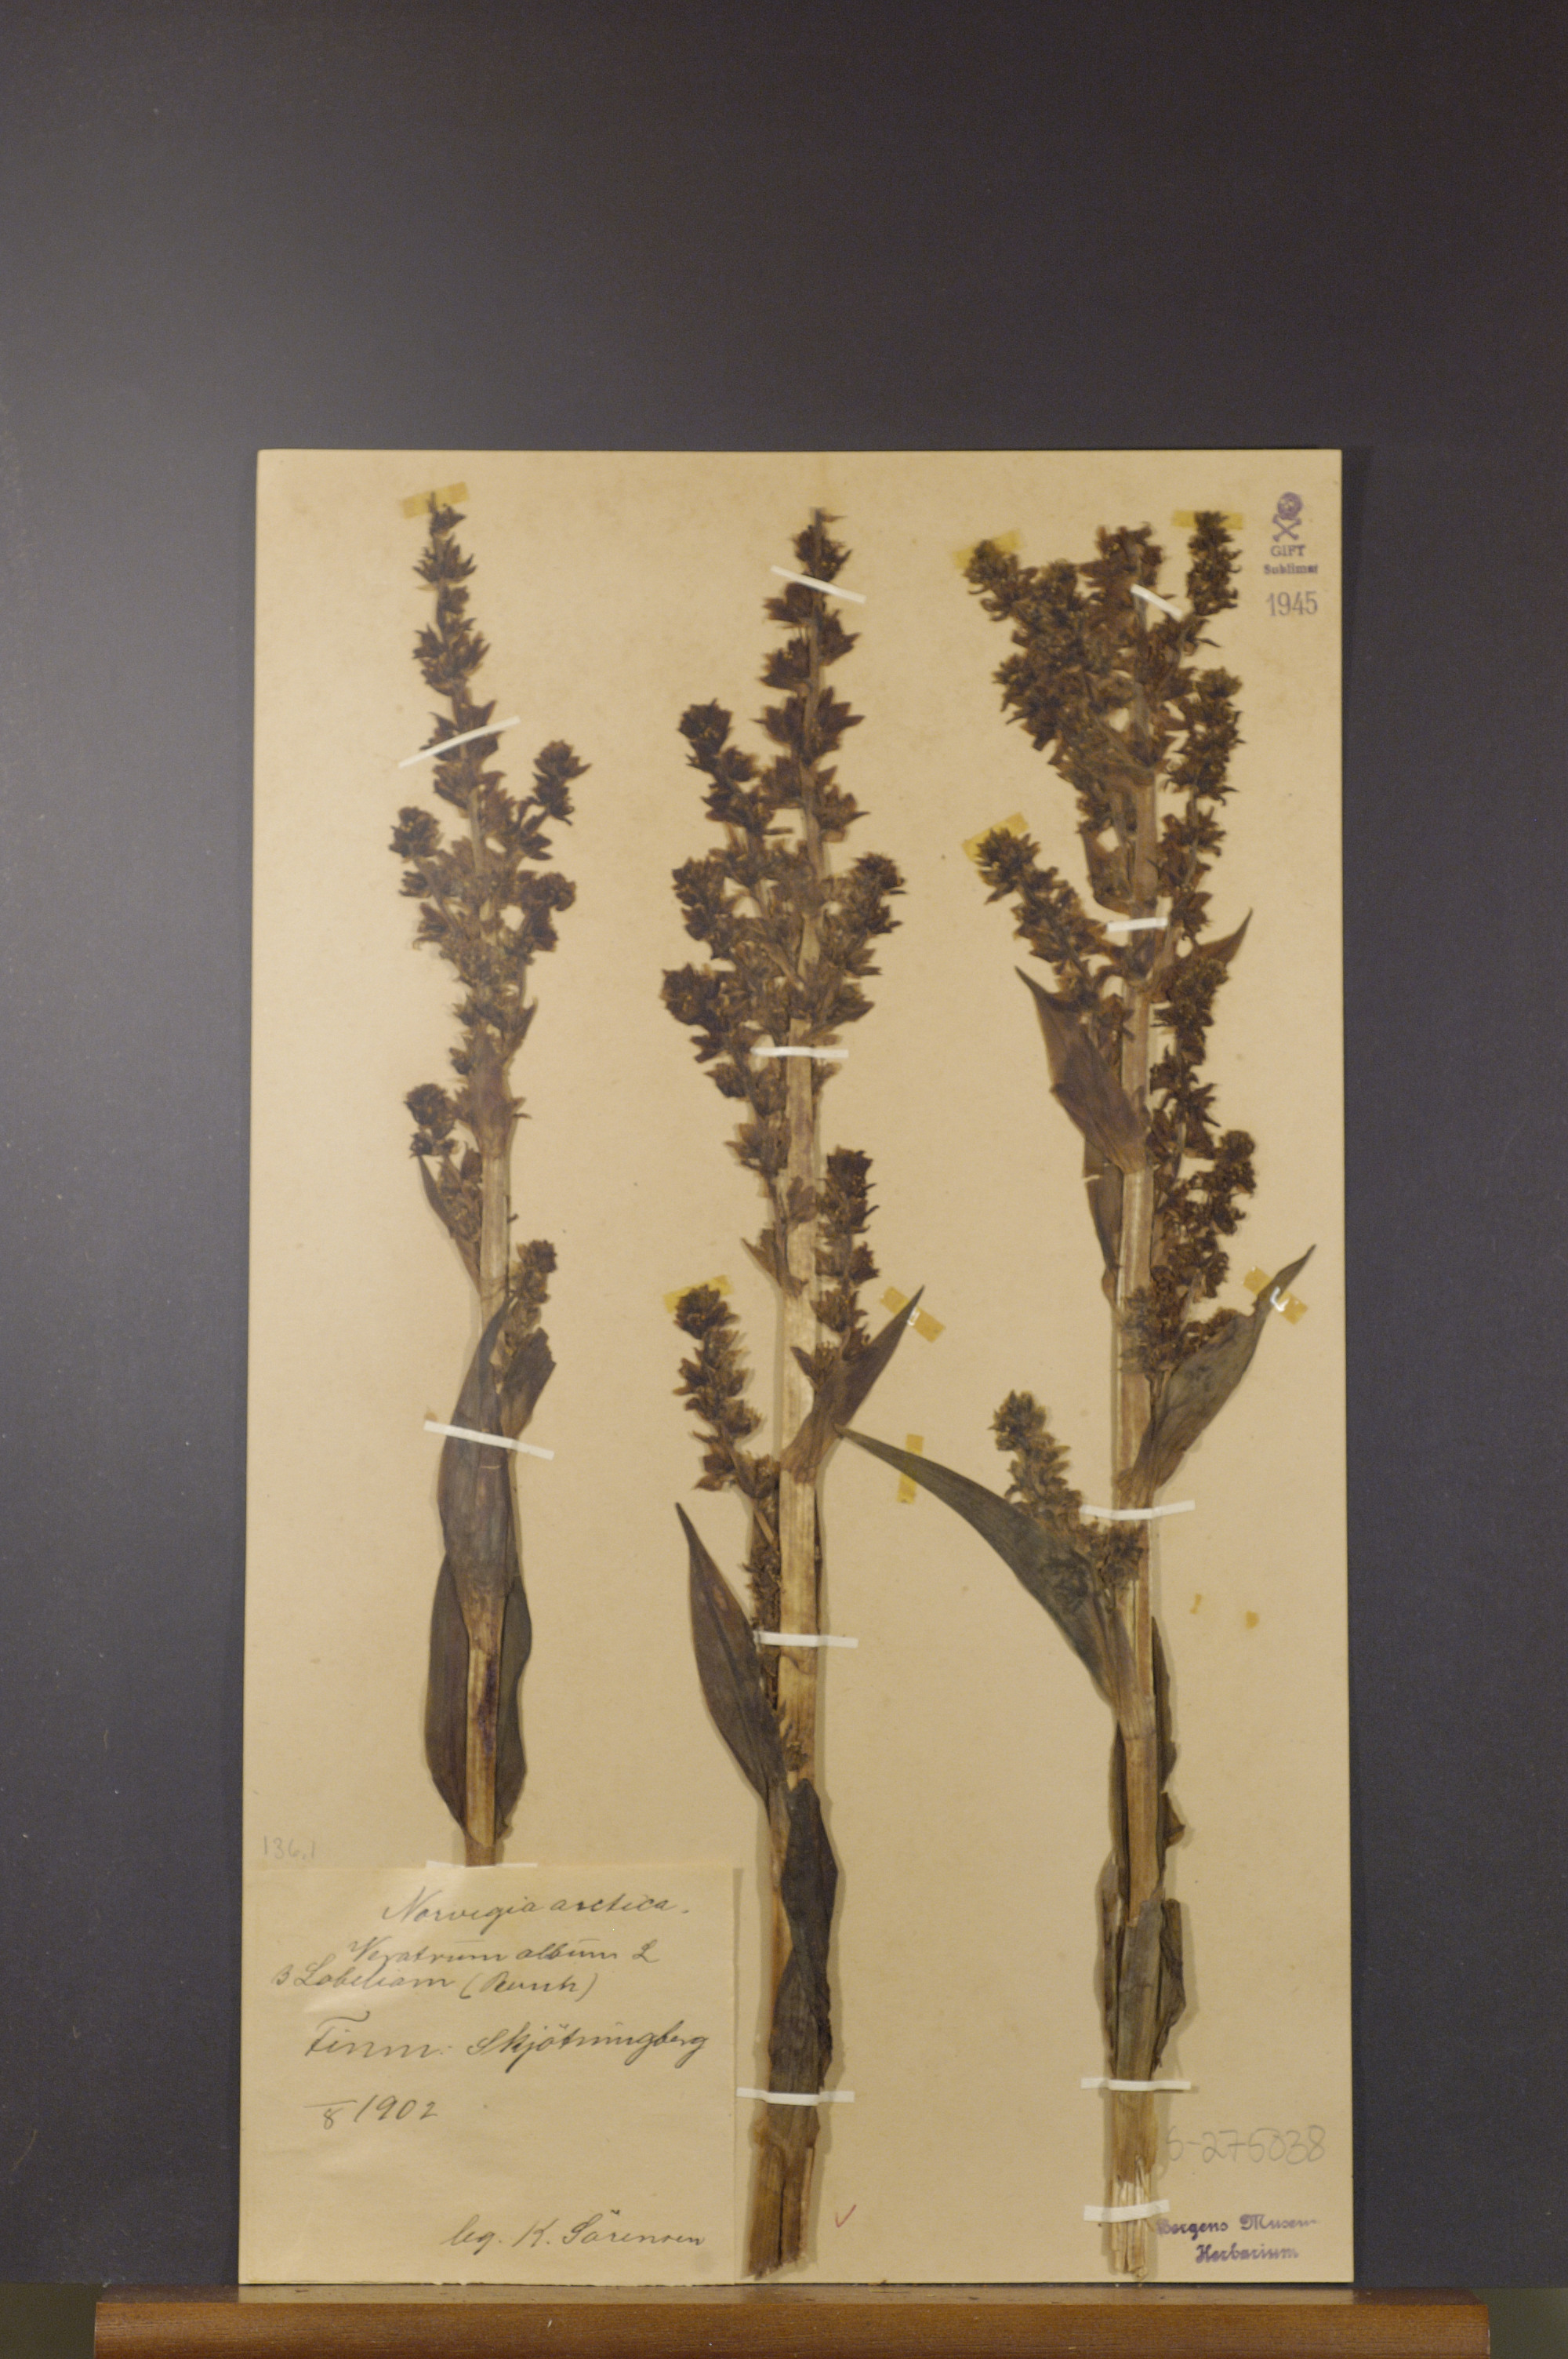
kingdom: Plantae
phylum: Tracheophyta
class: Liliopsida
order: Liliales
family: Melanthiaceae
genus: Veratrum
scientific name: Veratrum lobelianum
